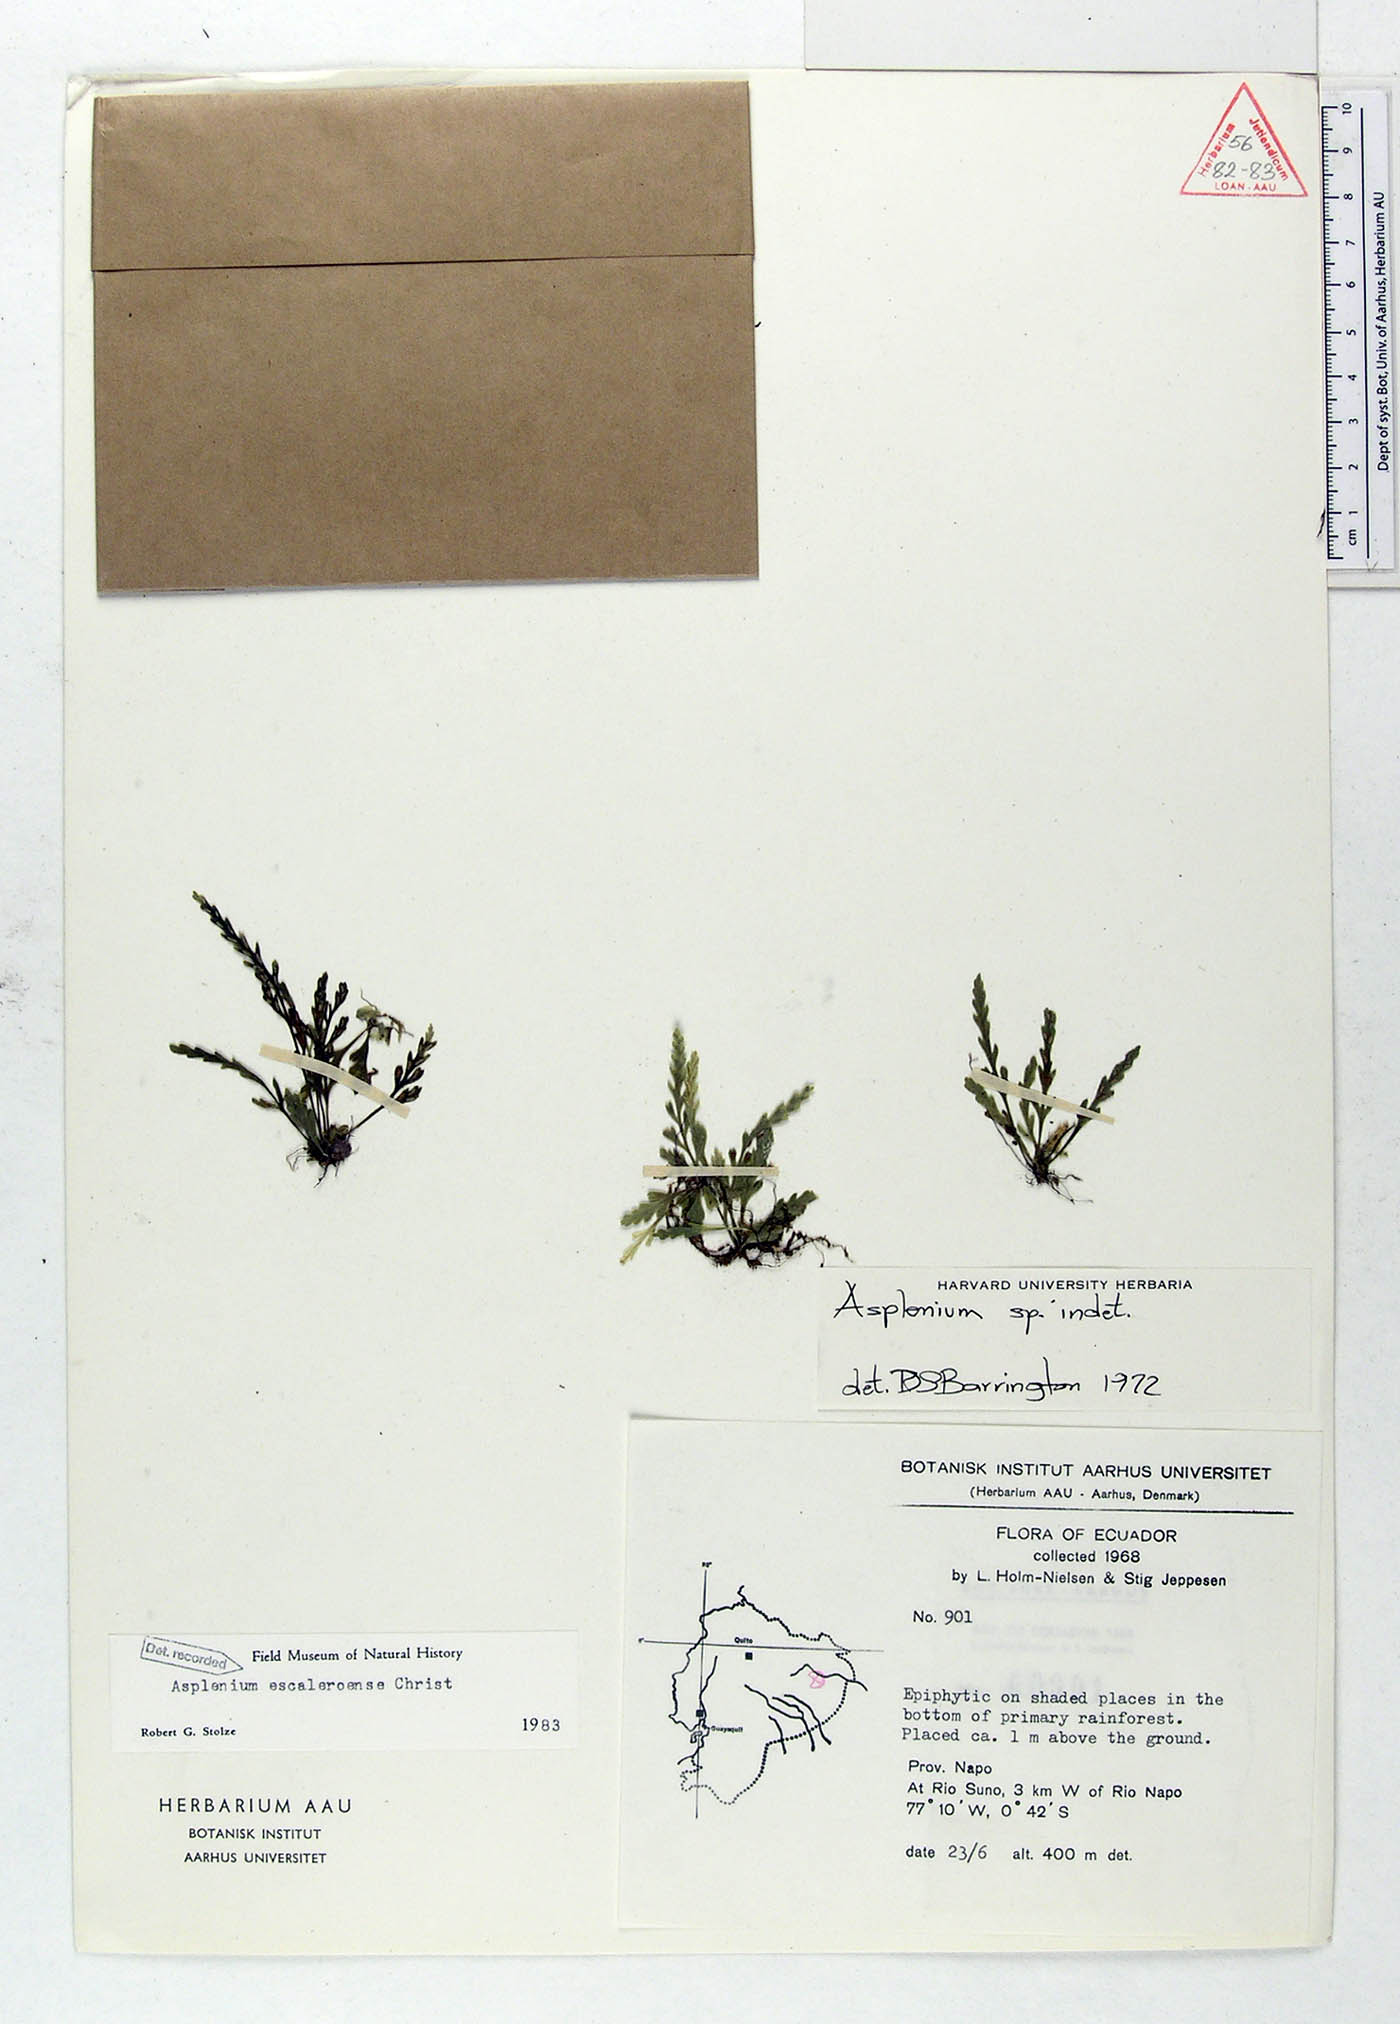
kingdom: Plantae
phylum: Tracheophyta
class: Polypodiopsida
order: Polypodiales
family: Aspleniaceae
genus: Asplenium
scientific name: Asplenium escaleroense
